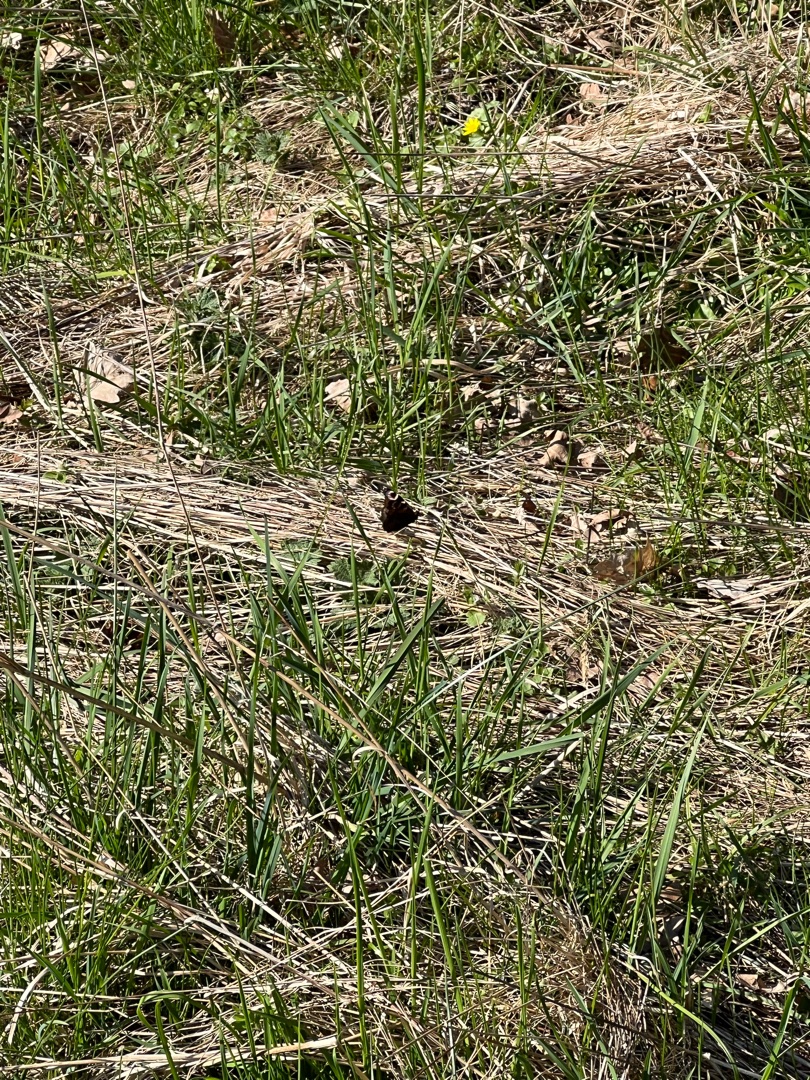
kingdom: Animalia
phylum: Arthropoda
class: Insecta
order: Lepidoptera
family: Nymphalidae
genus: Aglais
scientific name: Aglais io
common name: Dagpåfugleøje
